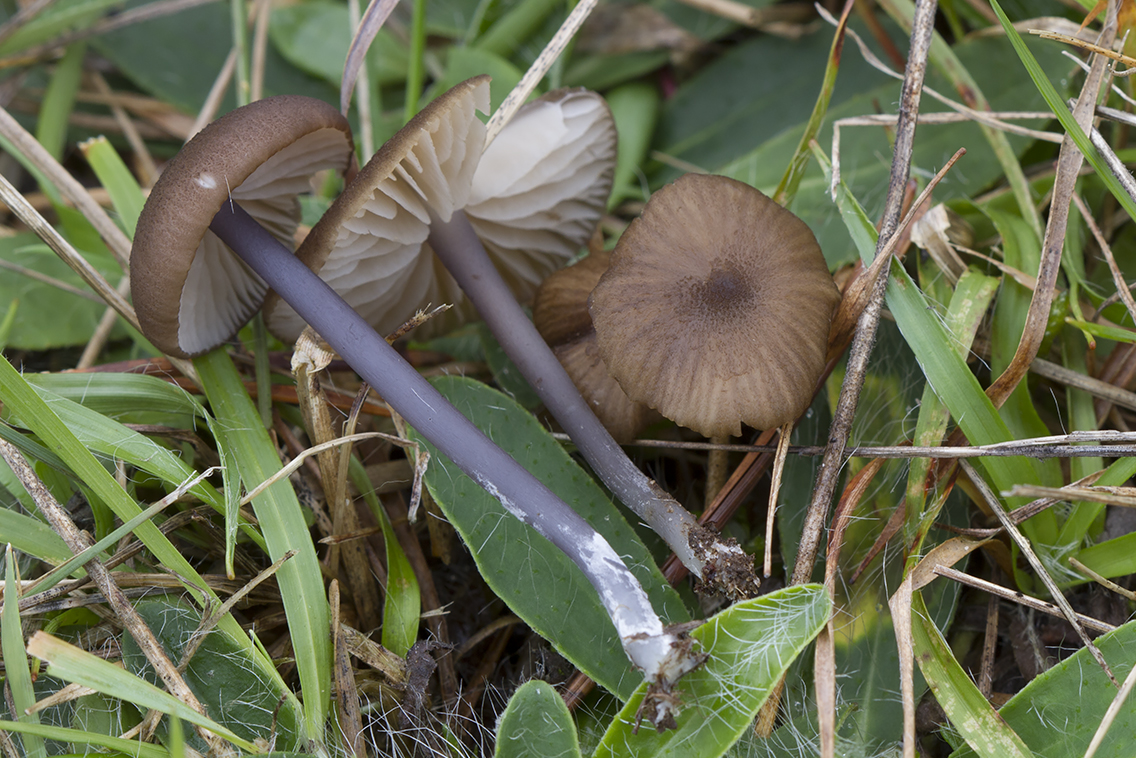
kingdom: Fungi
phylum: Basidiomycota
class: Agaricomycetes
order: Agaricales
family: Entolomataceae
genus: Entoloma
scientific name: Entoloma
